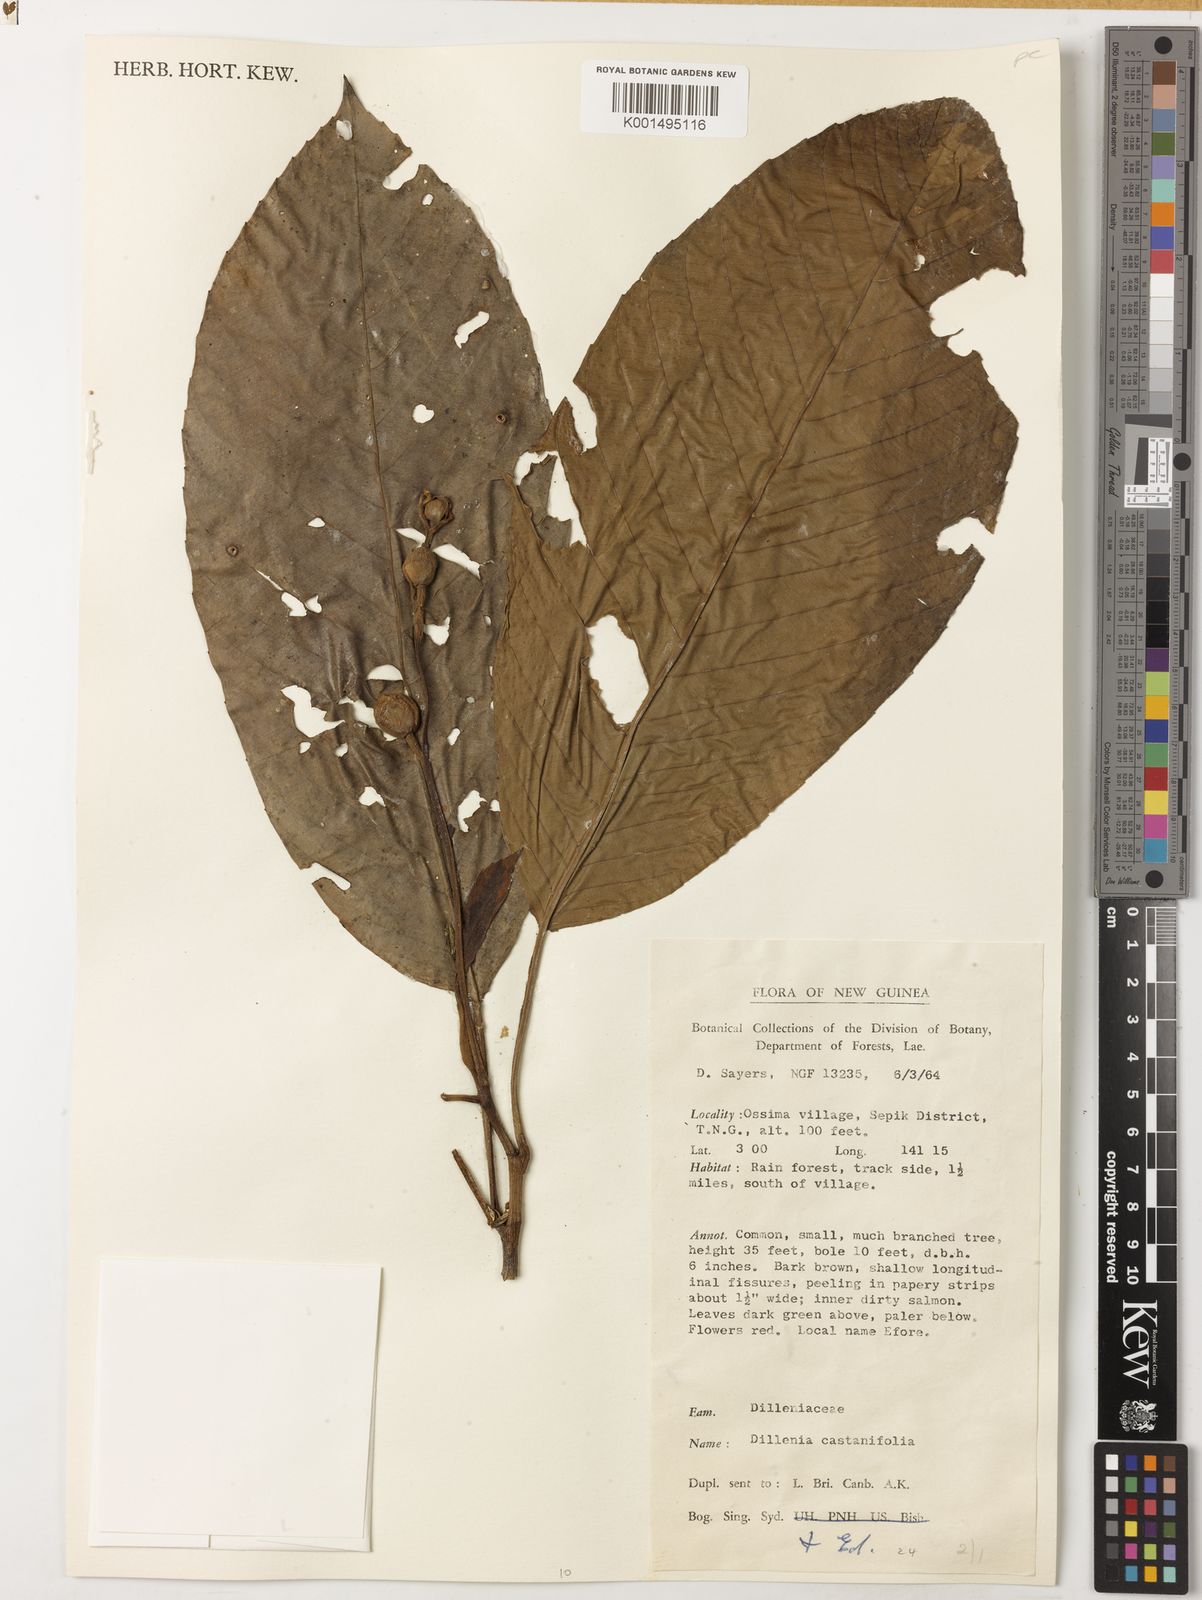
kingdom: Plantae
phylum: Tracheophyta
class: Magnoliopsida
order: Dilleniales
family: Dilleniaceae
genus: Dillenia
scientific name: Dillenia castaneifolia
